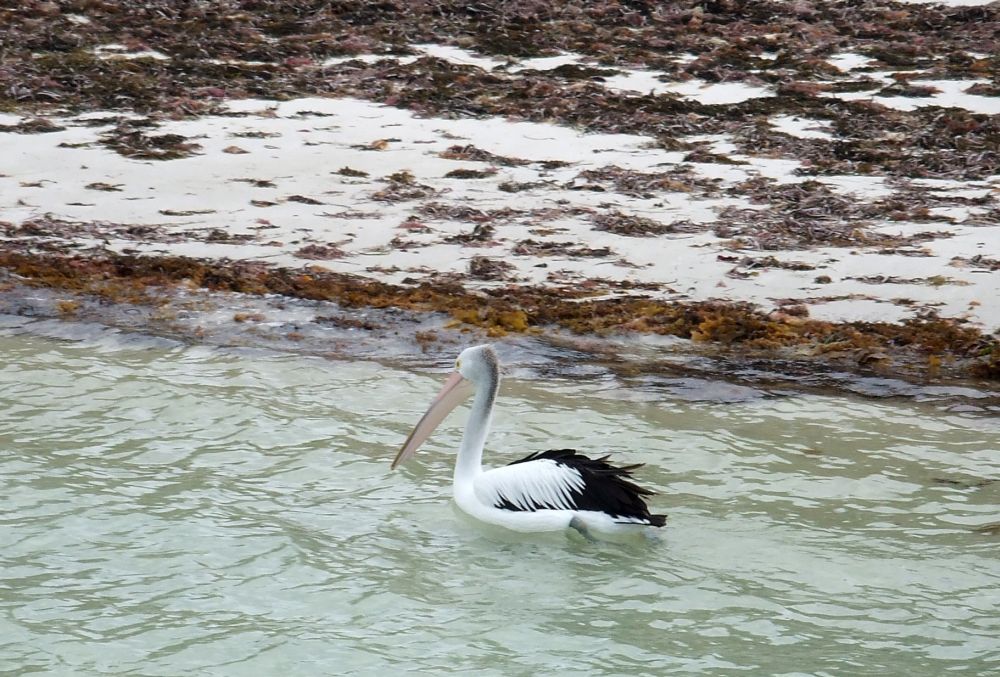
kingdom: Animalia
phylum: Chordata
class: Aves
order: Pelecaniformes
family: Pelecanidae
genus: Pelecanus
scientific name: Pelecanus conspicillatus
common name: Australian pelican
